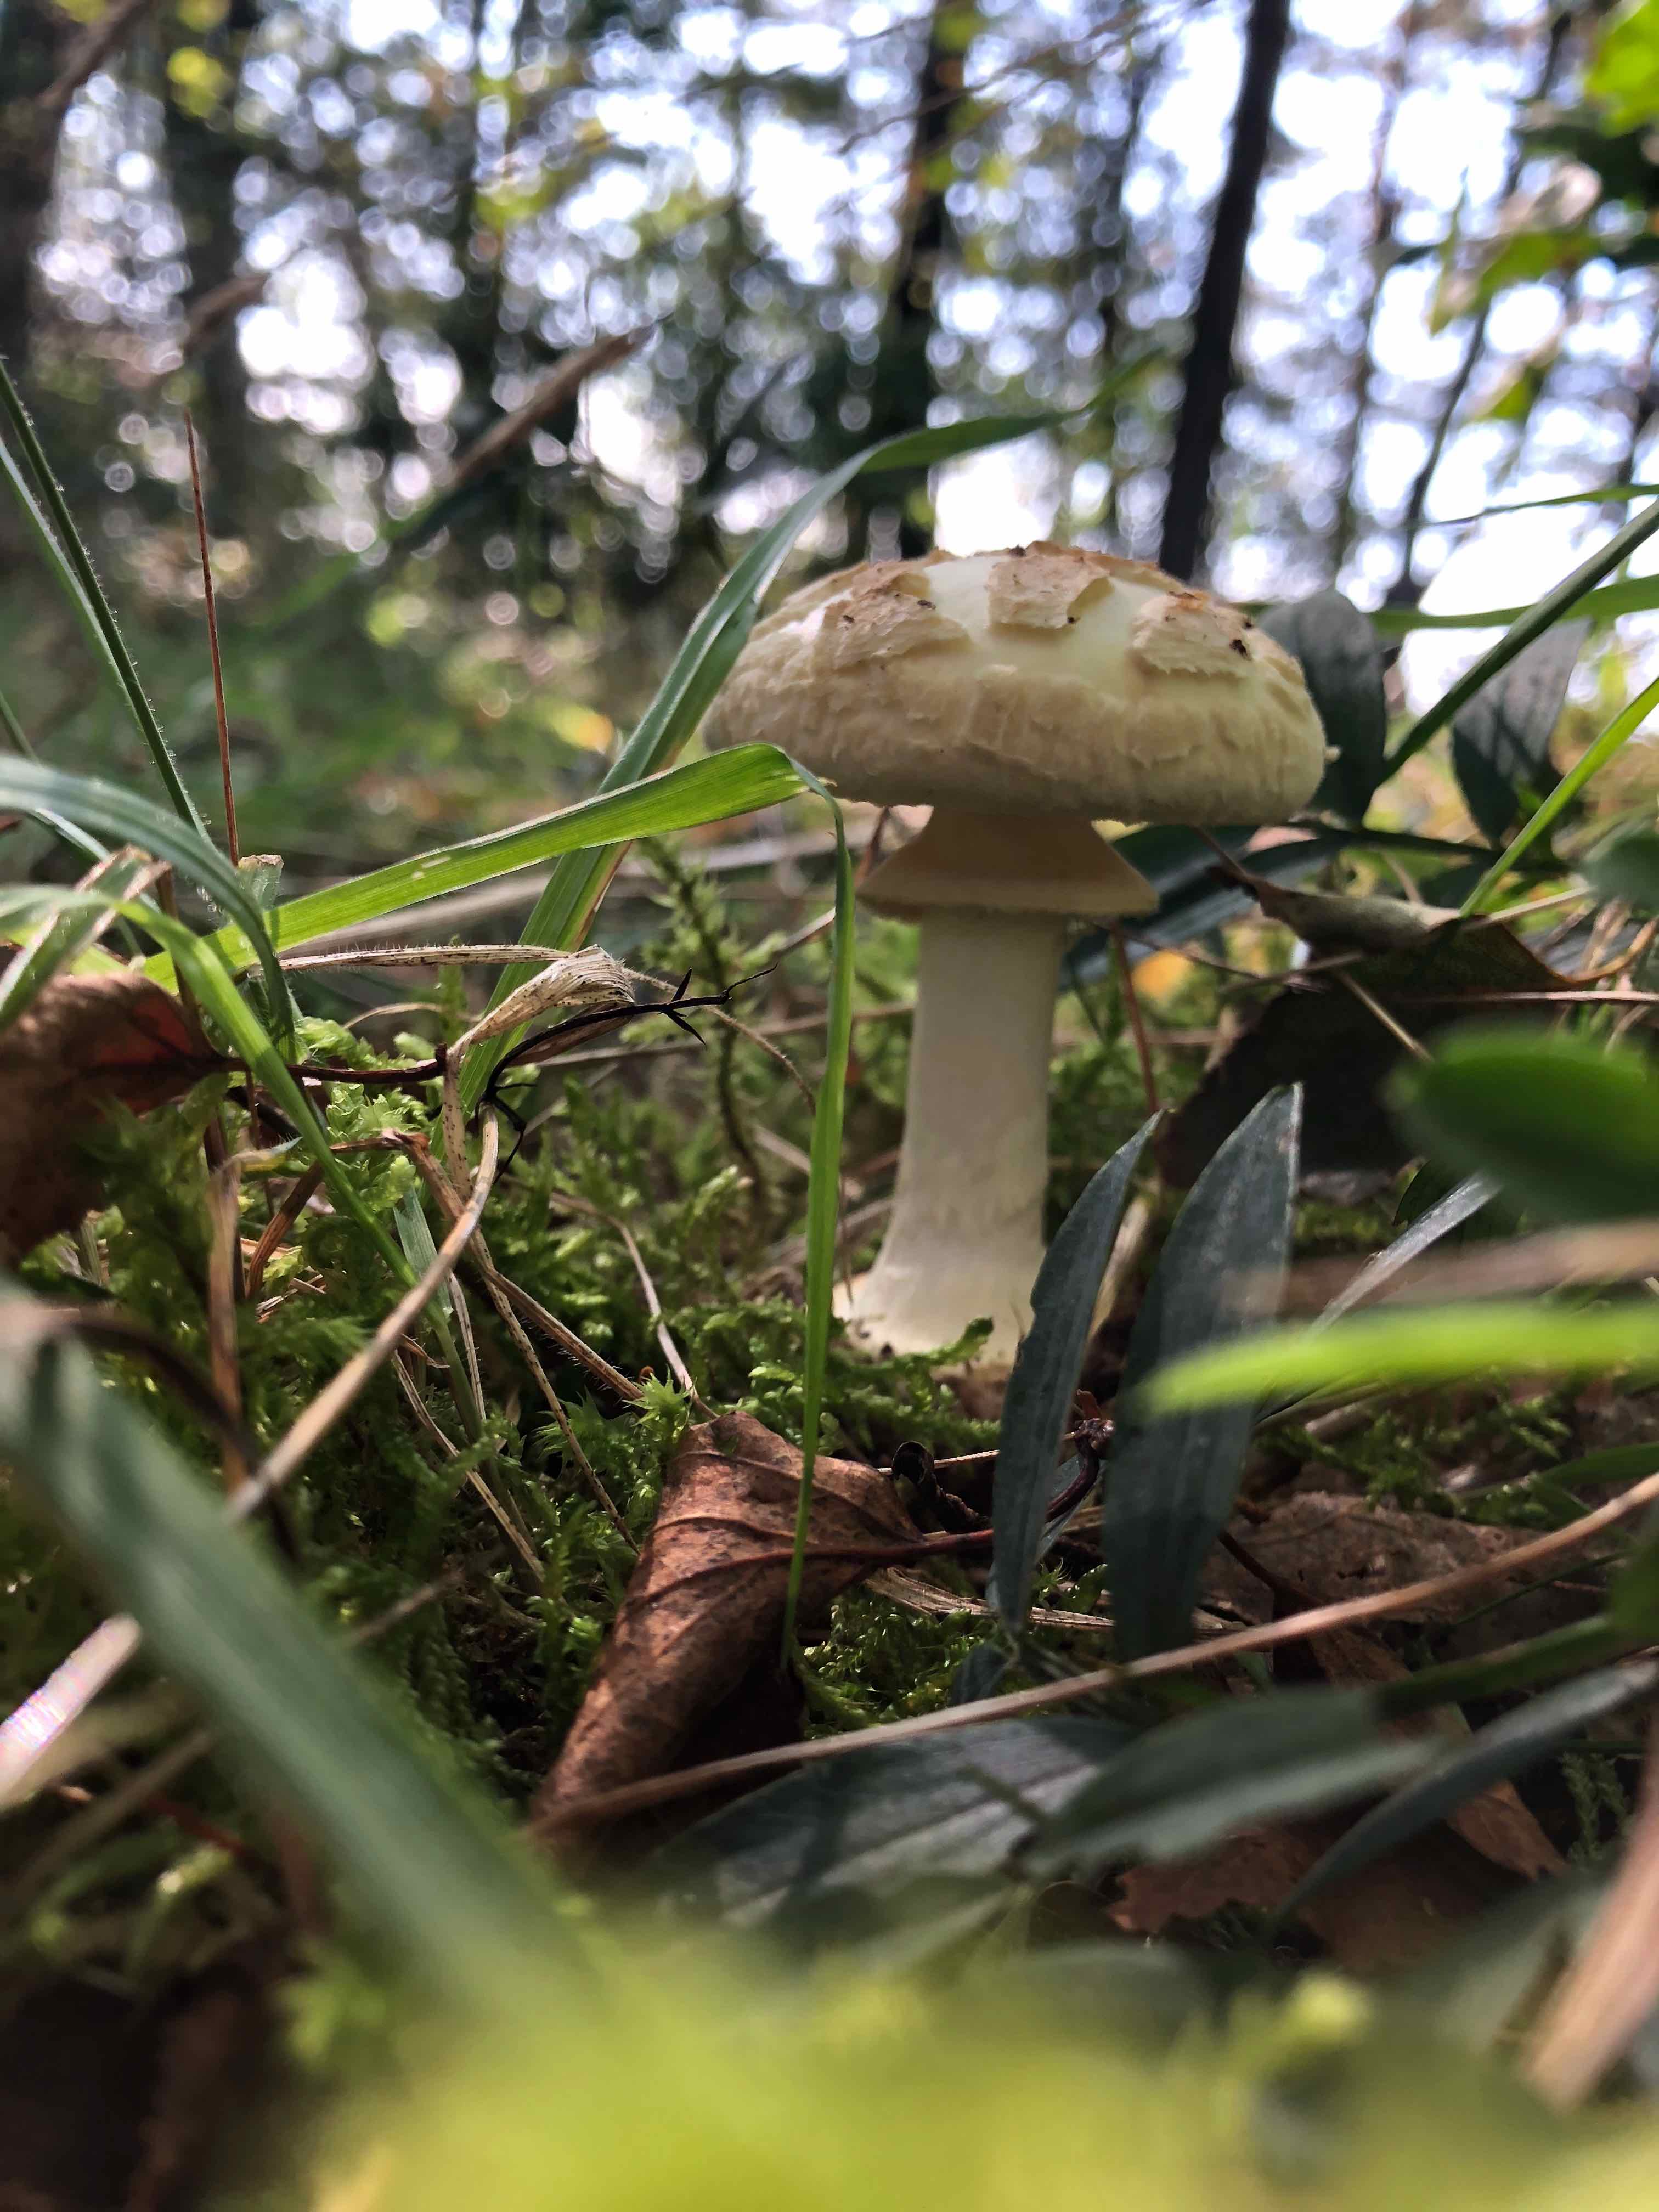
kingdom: Fungi
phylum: Basidiomycota
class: Agaricomycetes
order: Agaricales
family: Amanitaceae
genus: Amanita
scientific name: Amanita citrina
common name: kugleknoldet fluesvamp
